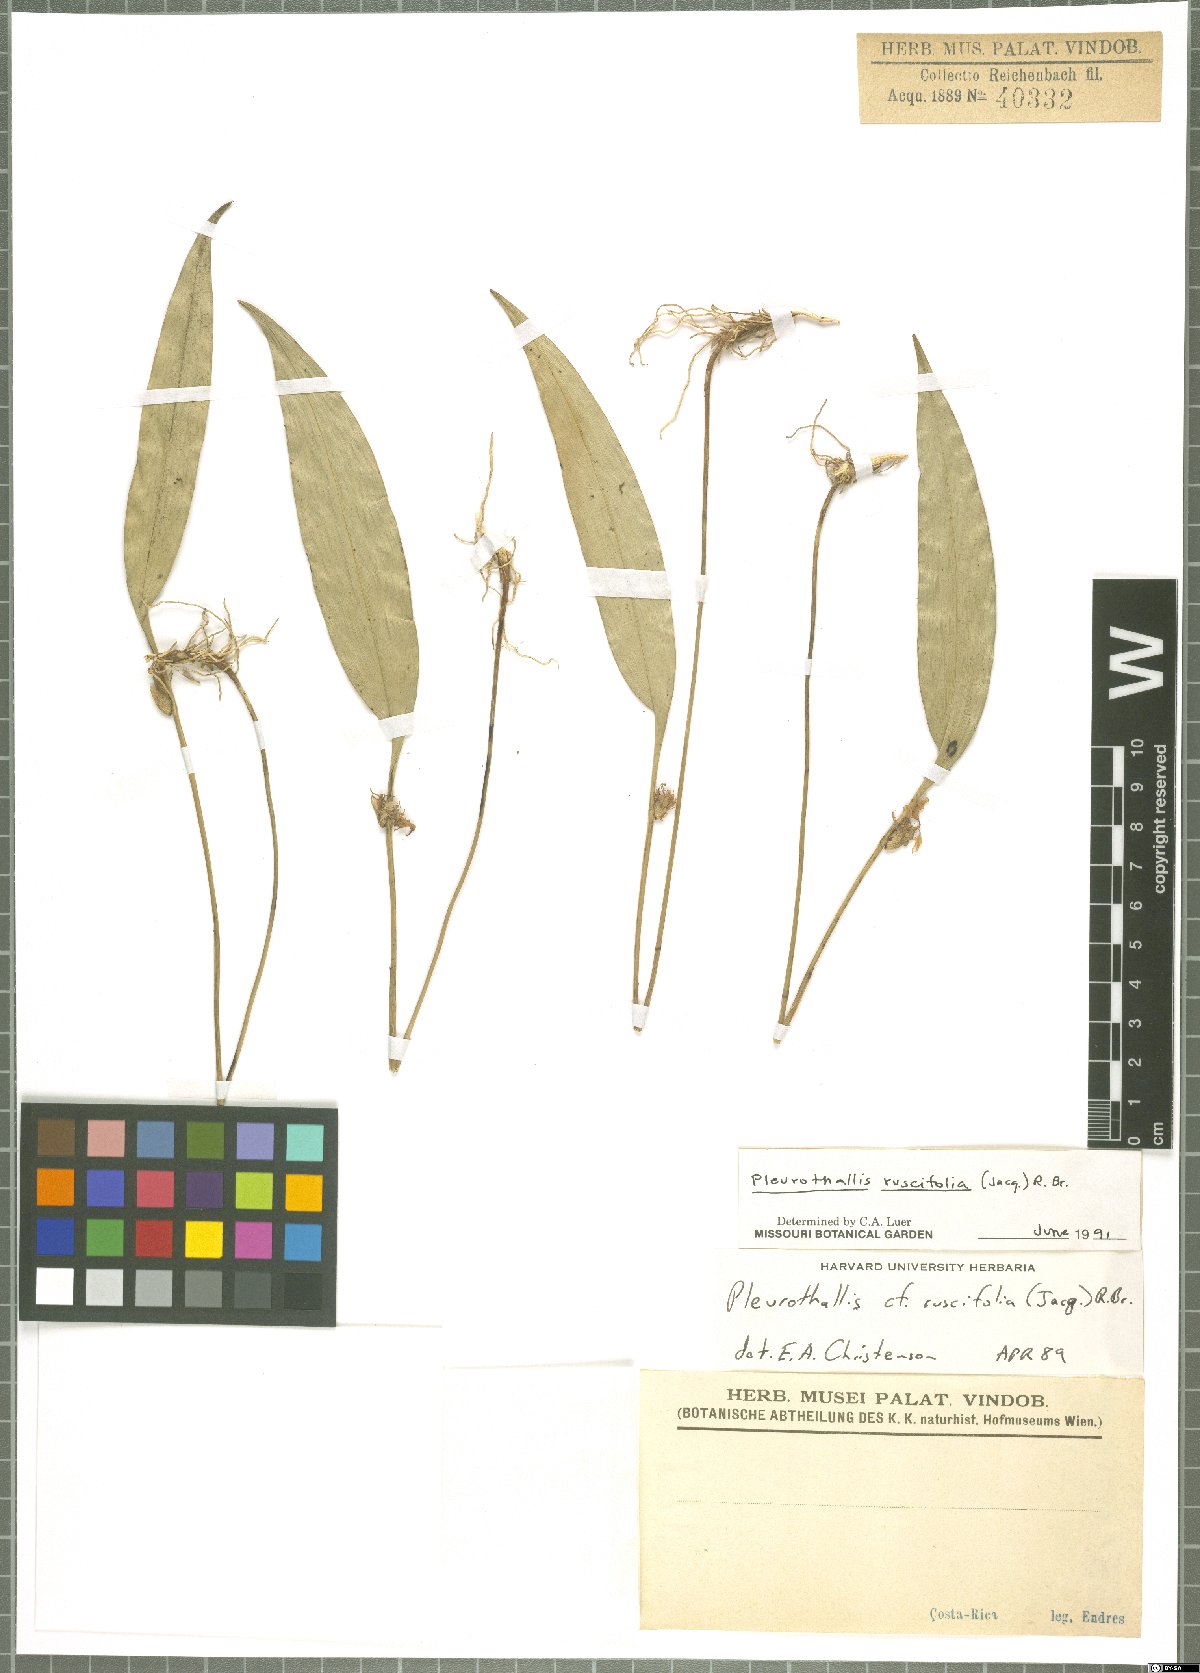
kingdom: Plantae
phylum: Tracheophyta
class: Liliopsida
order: Asparagales
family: Orchidaceae
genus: Pleurothallis
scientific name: Pleurothallis ruscifolia
